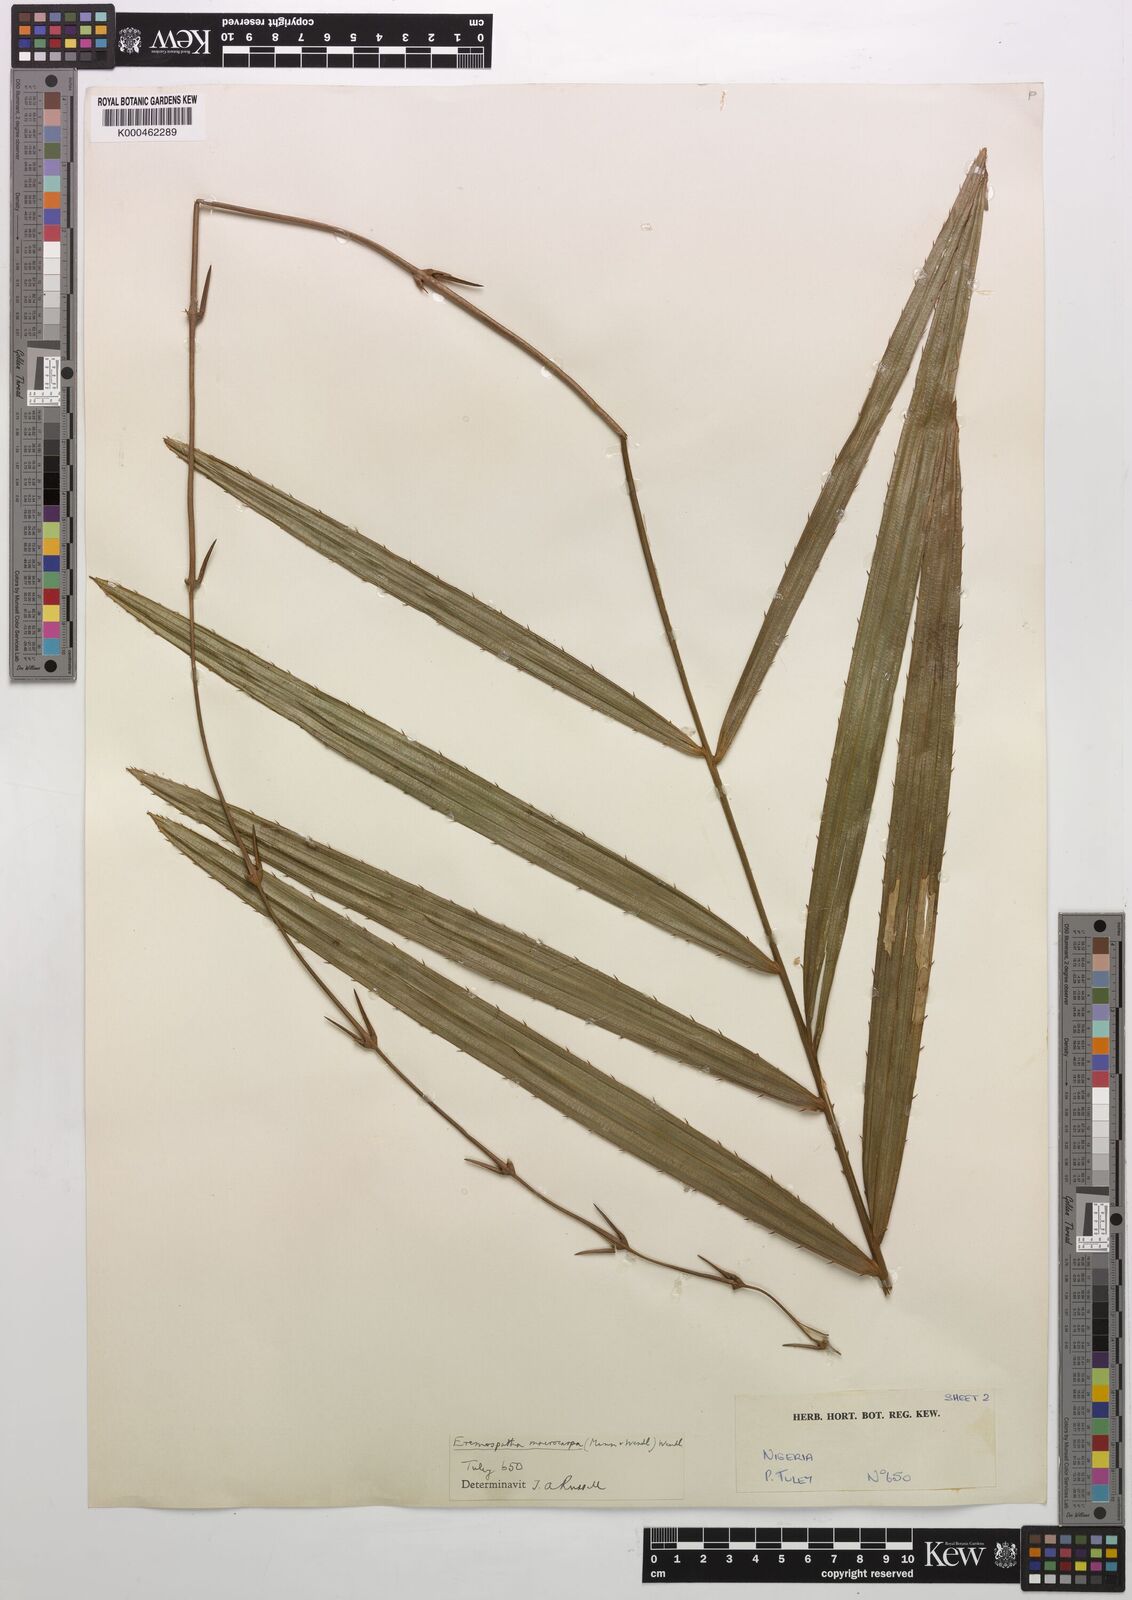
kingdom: Plantae
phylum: Tracheophyta
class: Liliopsida
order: Arecales
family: Arecaceae
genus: Eremospatha
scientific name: Eremospatha
